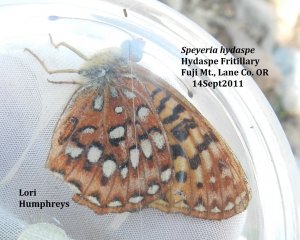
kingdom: Animalia
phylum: Arthropoda
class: Insecta
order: Lepidoptera
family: Nymphalidae
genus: Speyeria
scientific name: Speyeria hydaspe
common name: Hydaspe Fritillary
